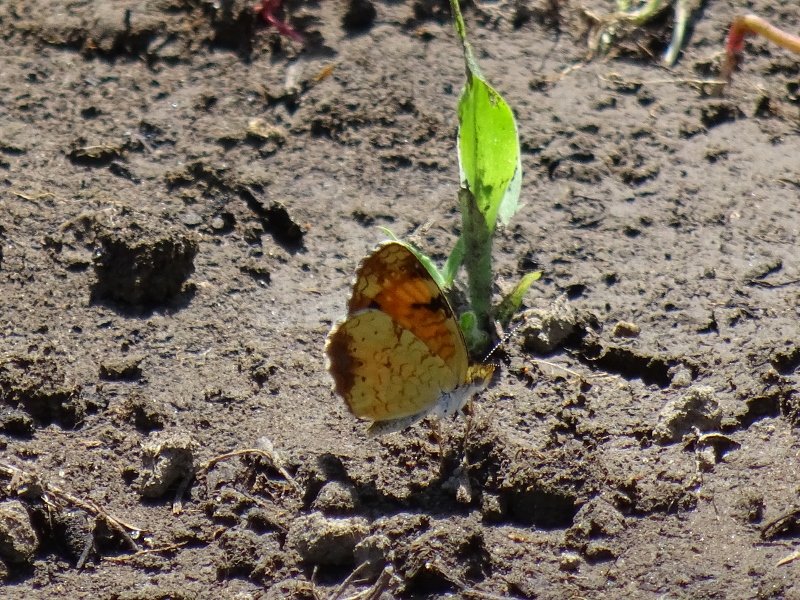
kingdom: Animalia
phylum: Arthropoda
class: Insecta
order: Lepidoptera
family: Nymphalidae
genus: Phyciodes
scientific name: Phyciodes tharos
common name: Northern Crescent
